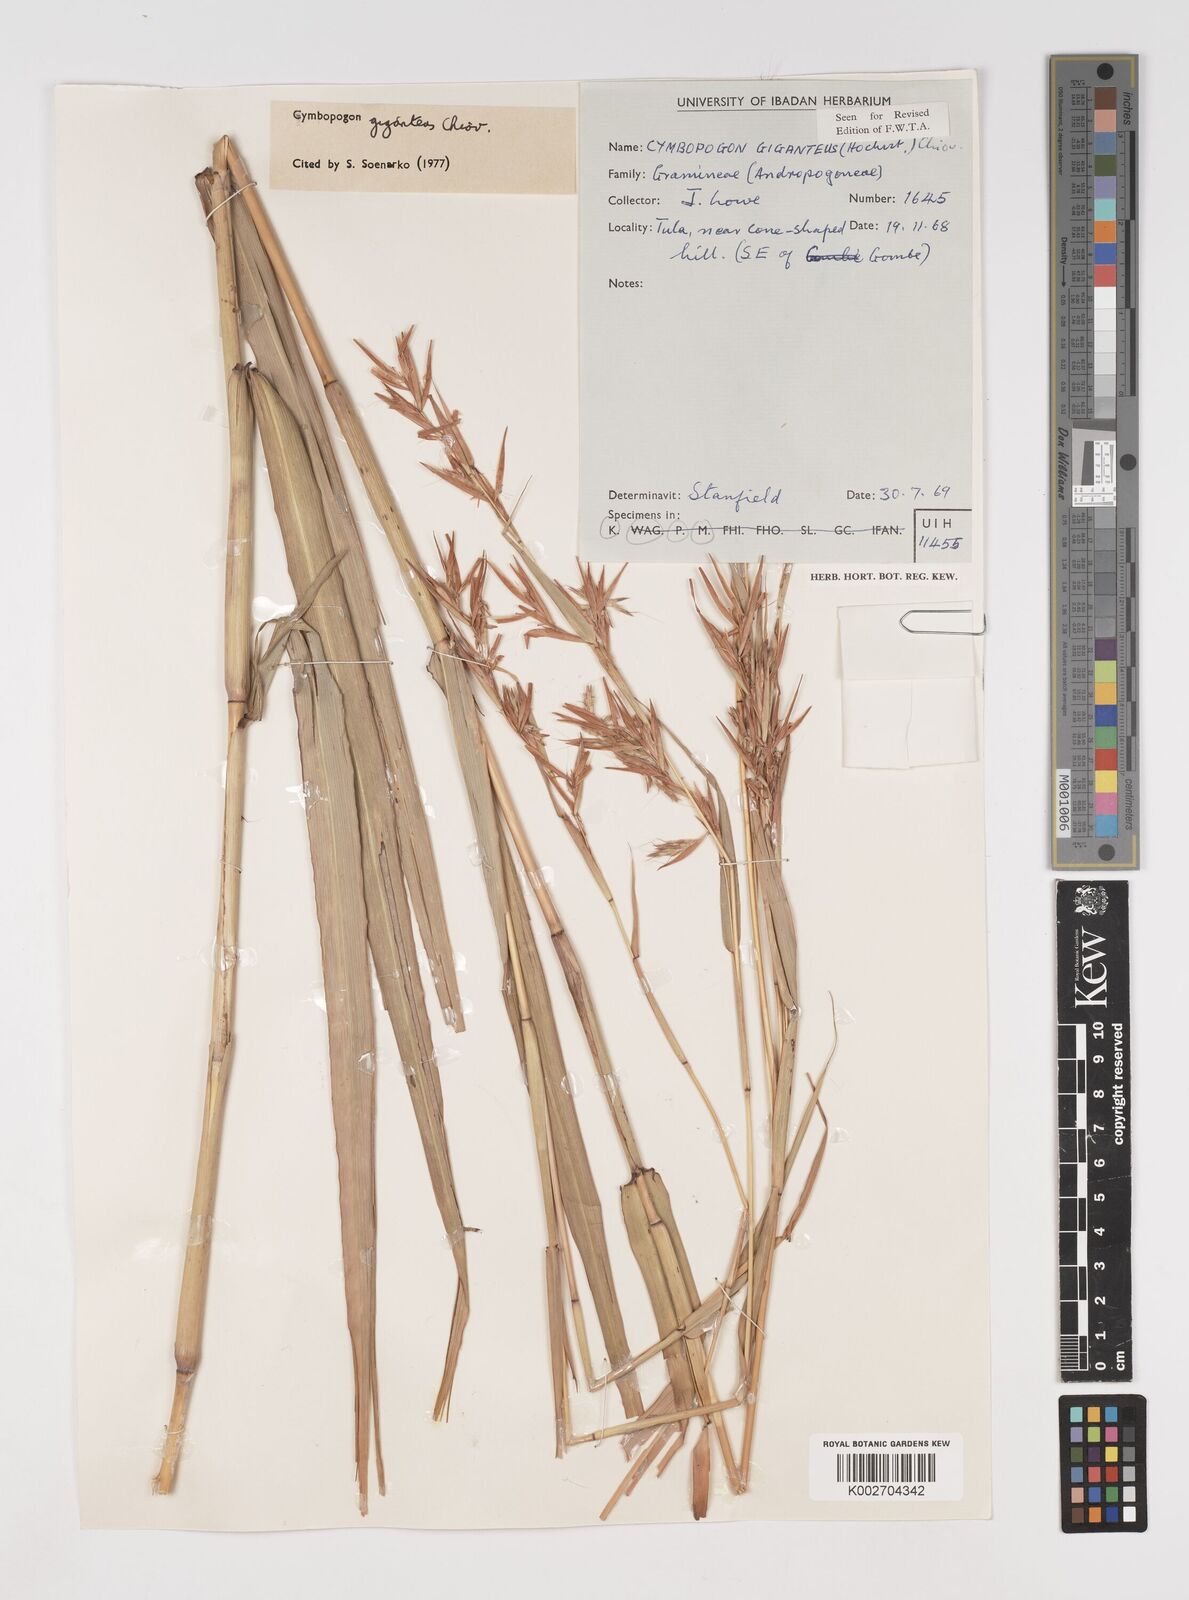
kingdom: Plantae
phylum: Tracheophyta
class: Liliopsida
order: Poales
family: Poaceae
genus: Cymbopogon
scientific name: Cymbopogon giganteus
